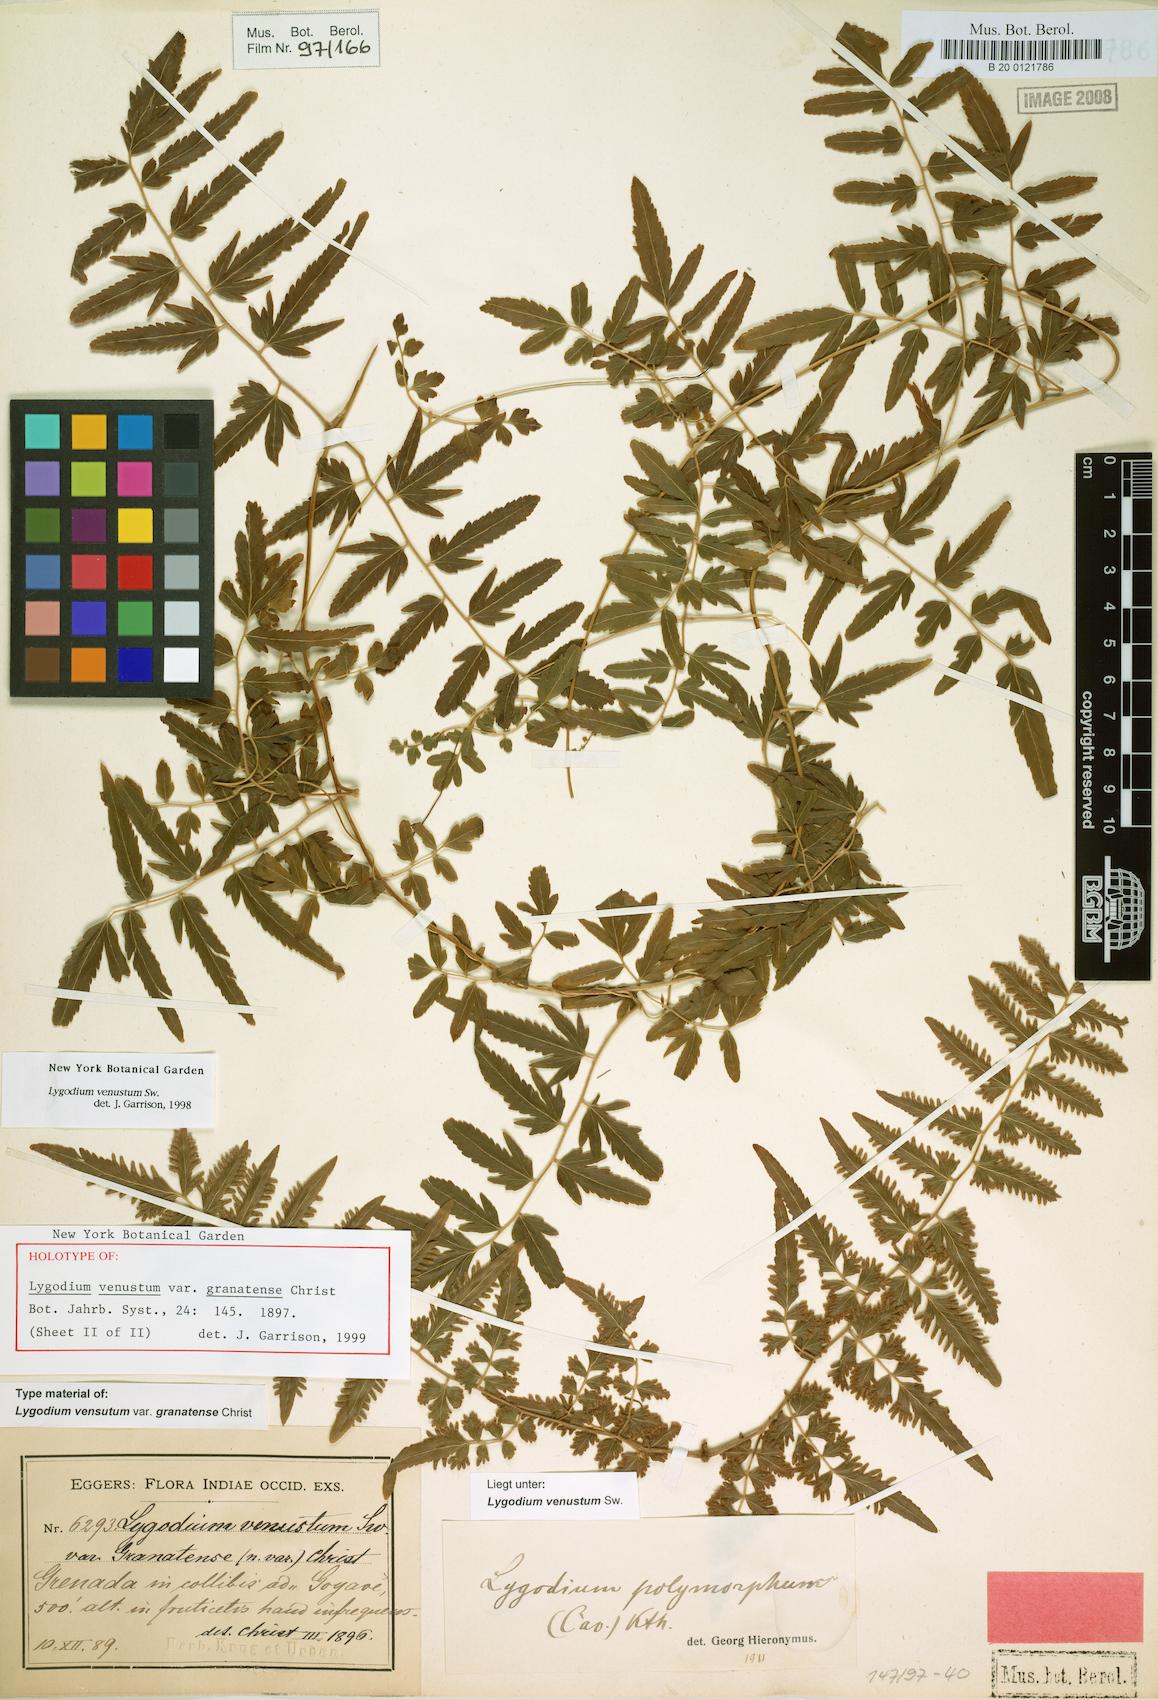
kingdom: Plantae
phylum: Tracheophyta
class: Polypodiopsida
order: Schizaeales
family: Lygodiaceae
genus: Lygodium
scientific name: Lygodium venustum
